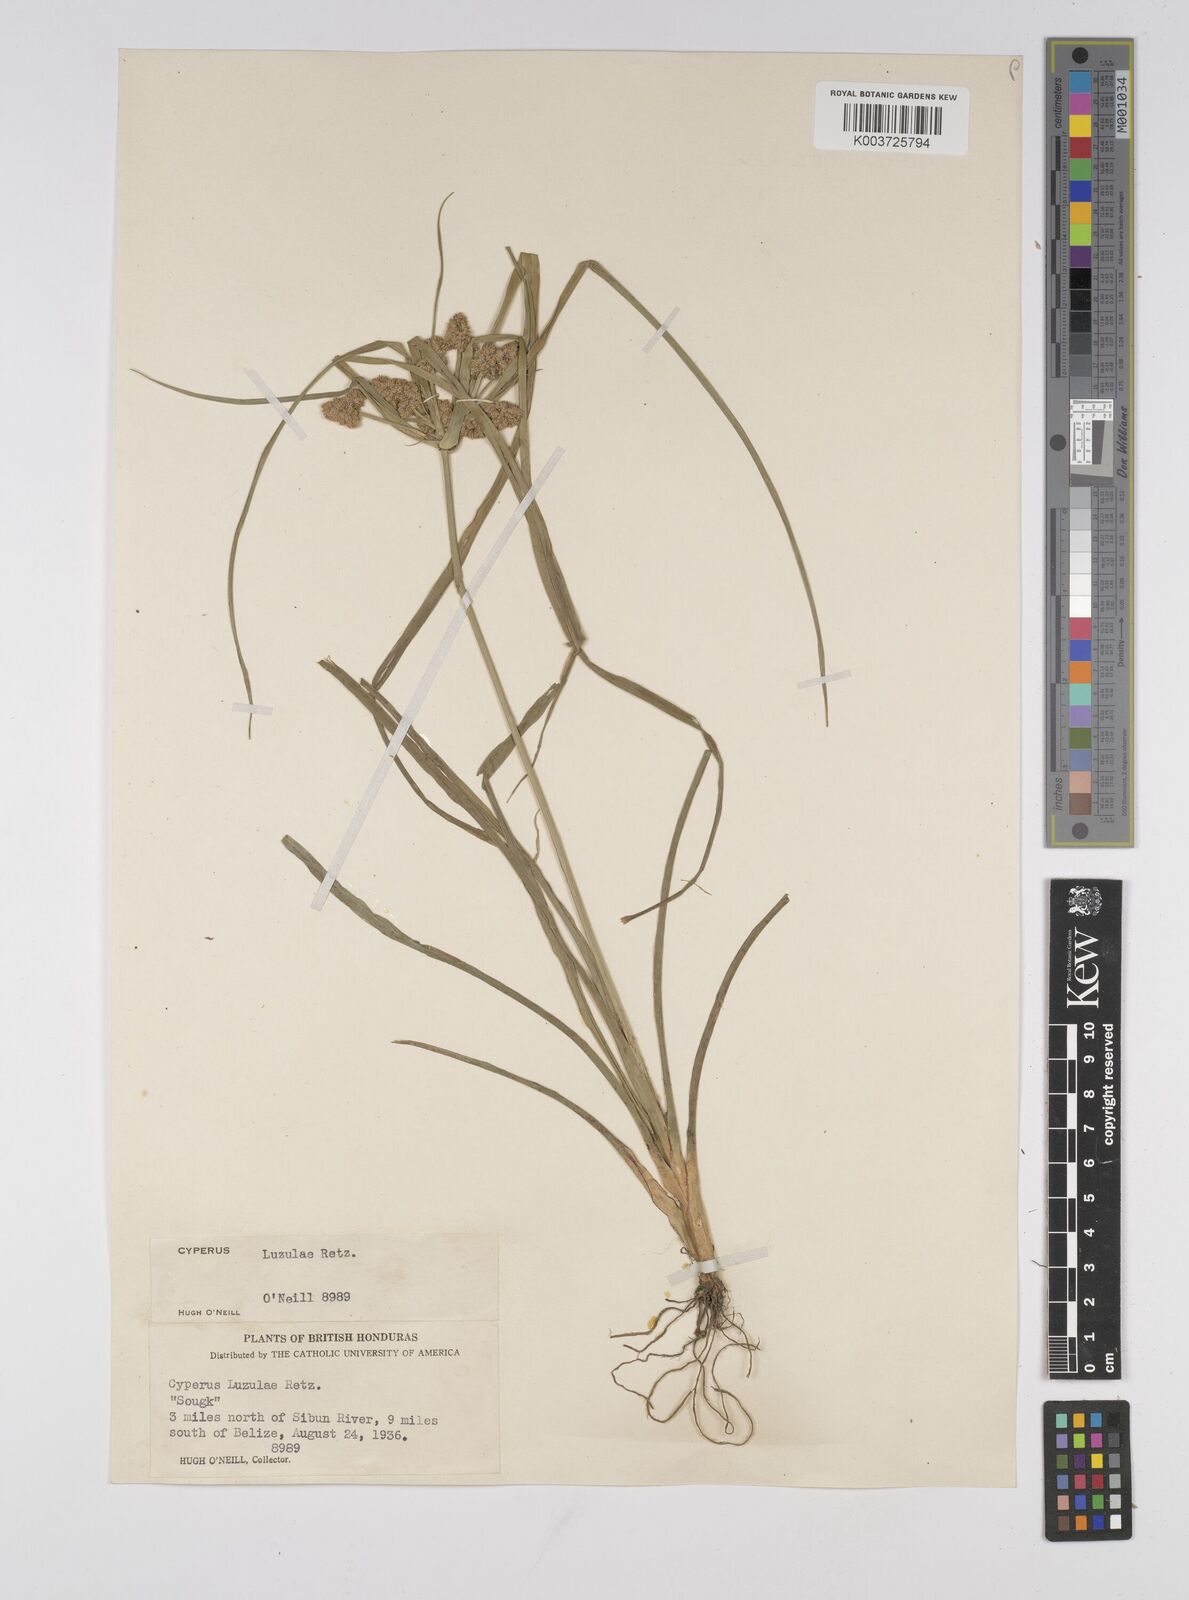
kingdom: Plantae
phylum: Tracheophyta
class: Liliopsida
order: Poales
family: Cyperaceae
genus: Cyperus
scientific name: Cyperus luzulae
